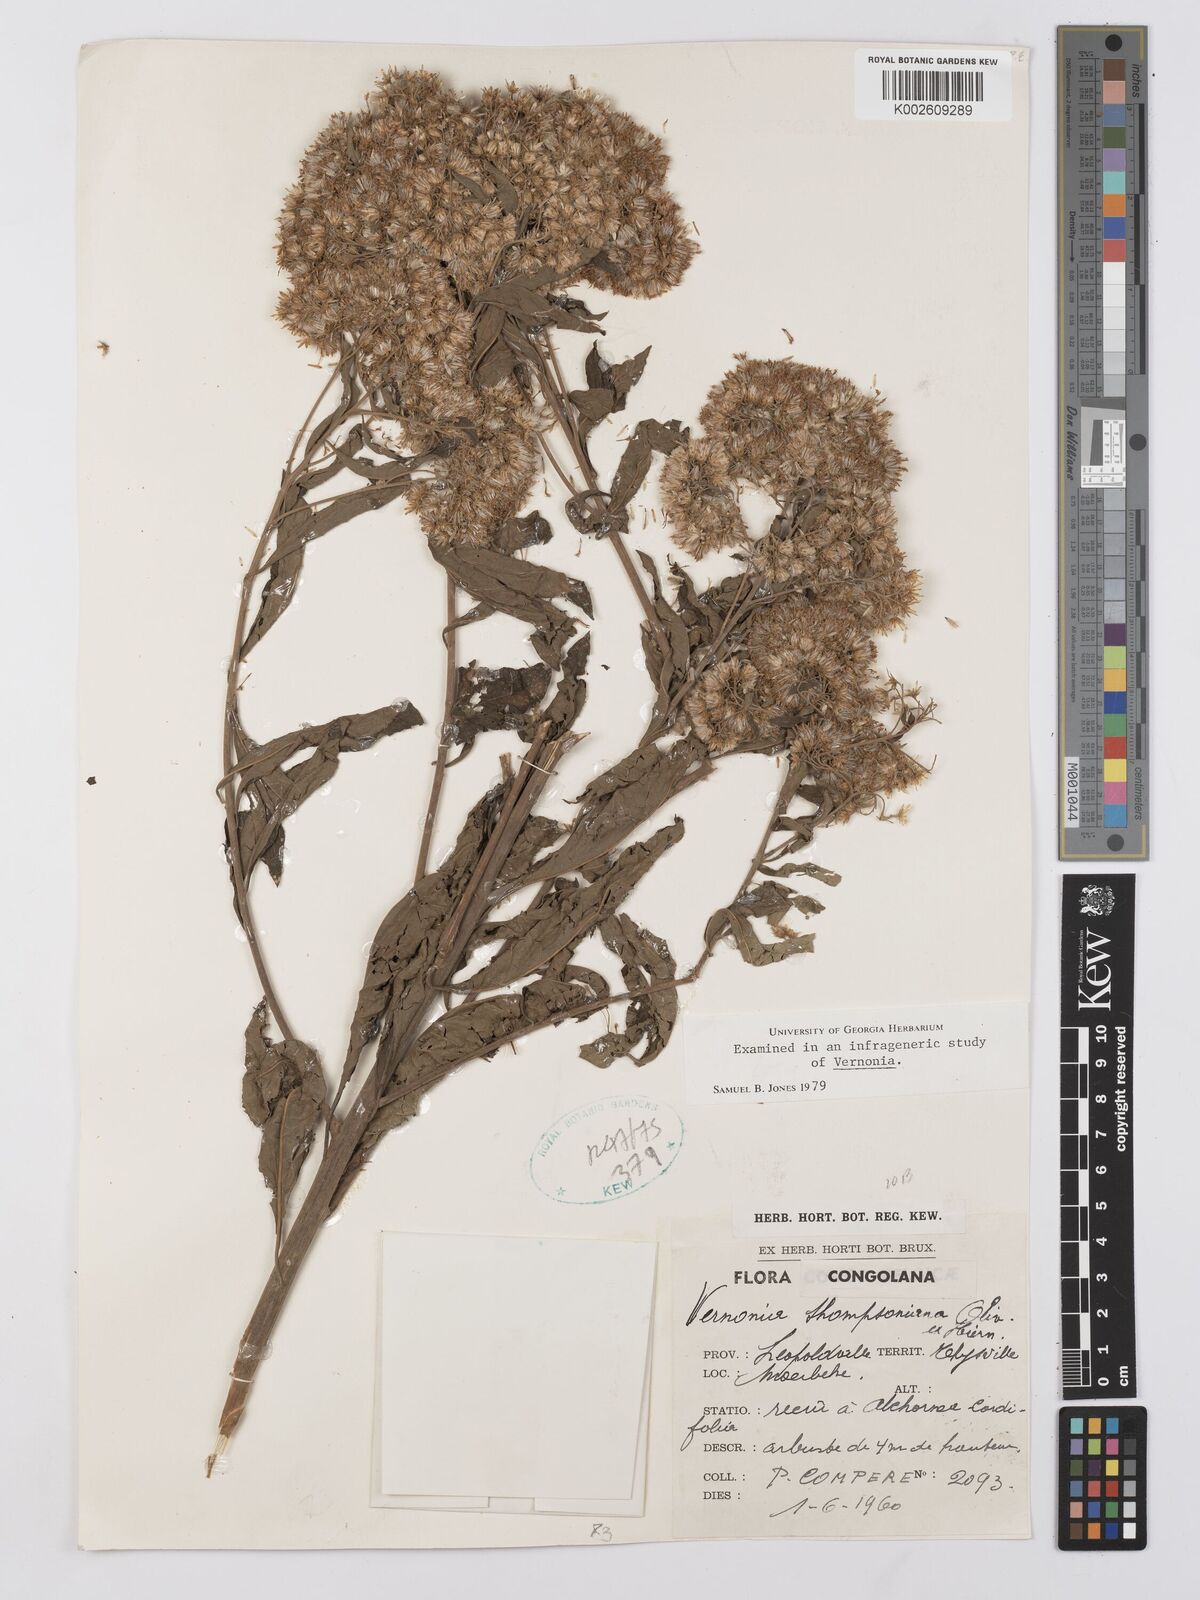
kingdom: Plantae
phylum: Tracheophyta
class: Magnoliopsida
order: Asterales
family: Asteraceae
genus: Gymnanthemum
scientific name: Gymnanthemum thomsonianum
